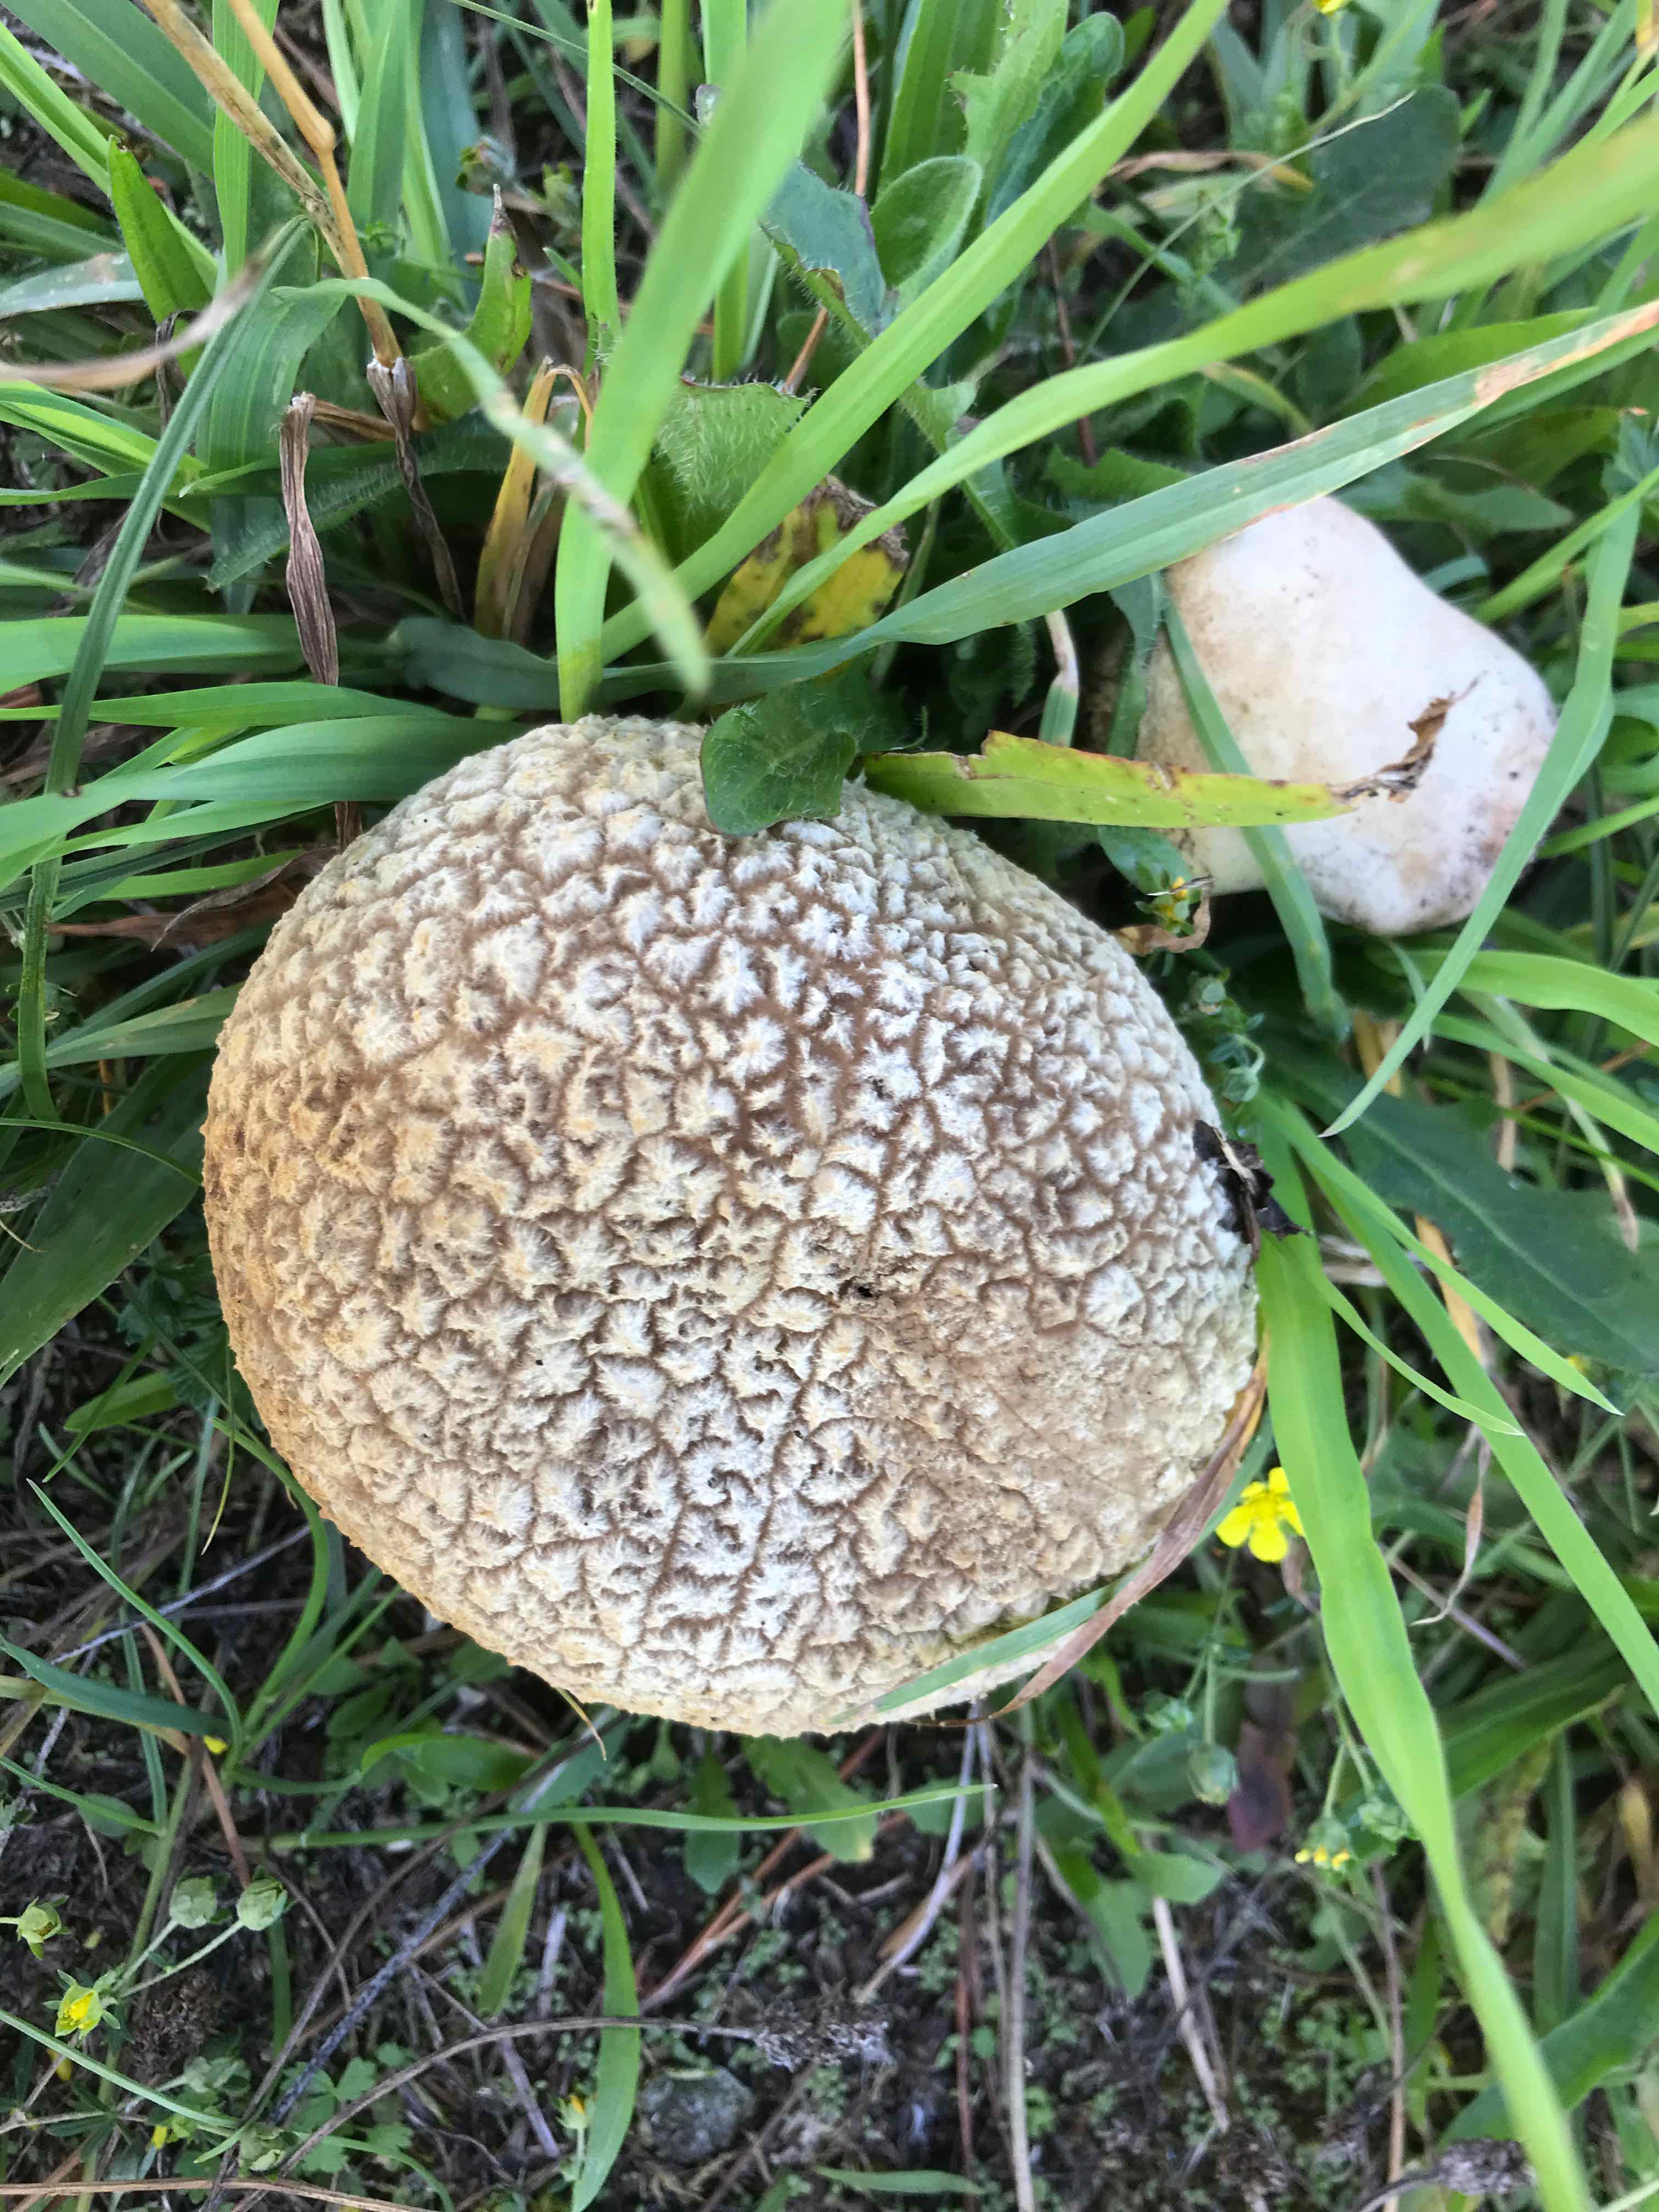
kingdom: Fungi
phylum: Basidiomycota
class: Agaricomycetes
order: Agaricales
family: Lycoperdaceae
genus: Bovistella
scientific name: Bovistella utriformis
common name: skællet støvbold
